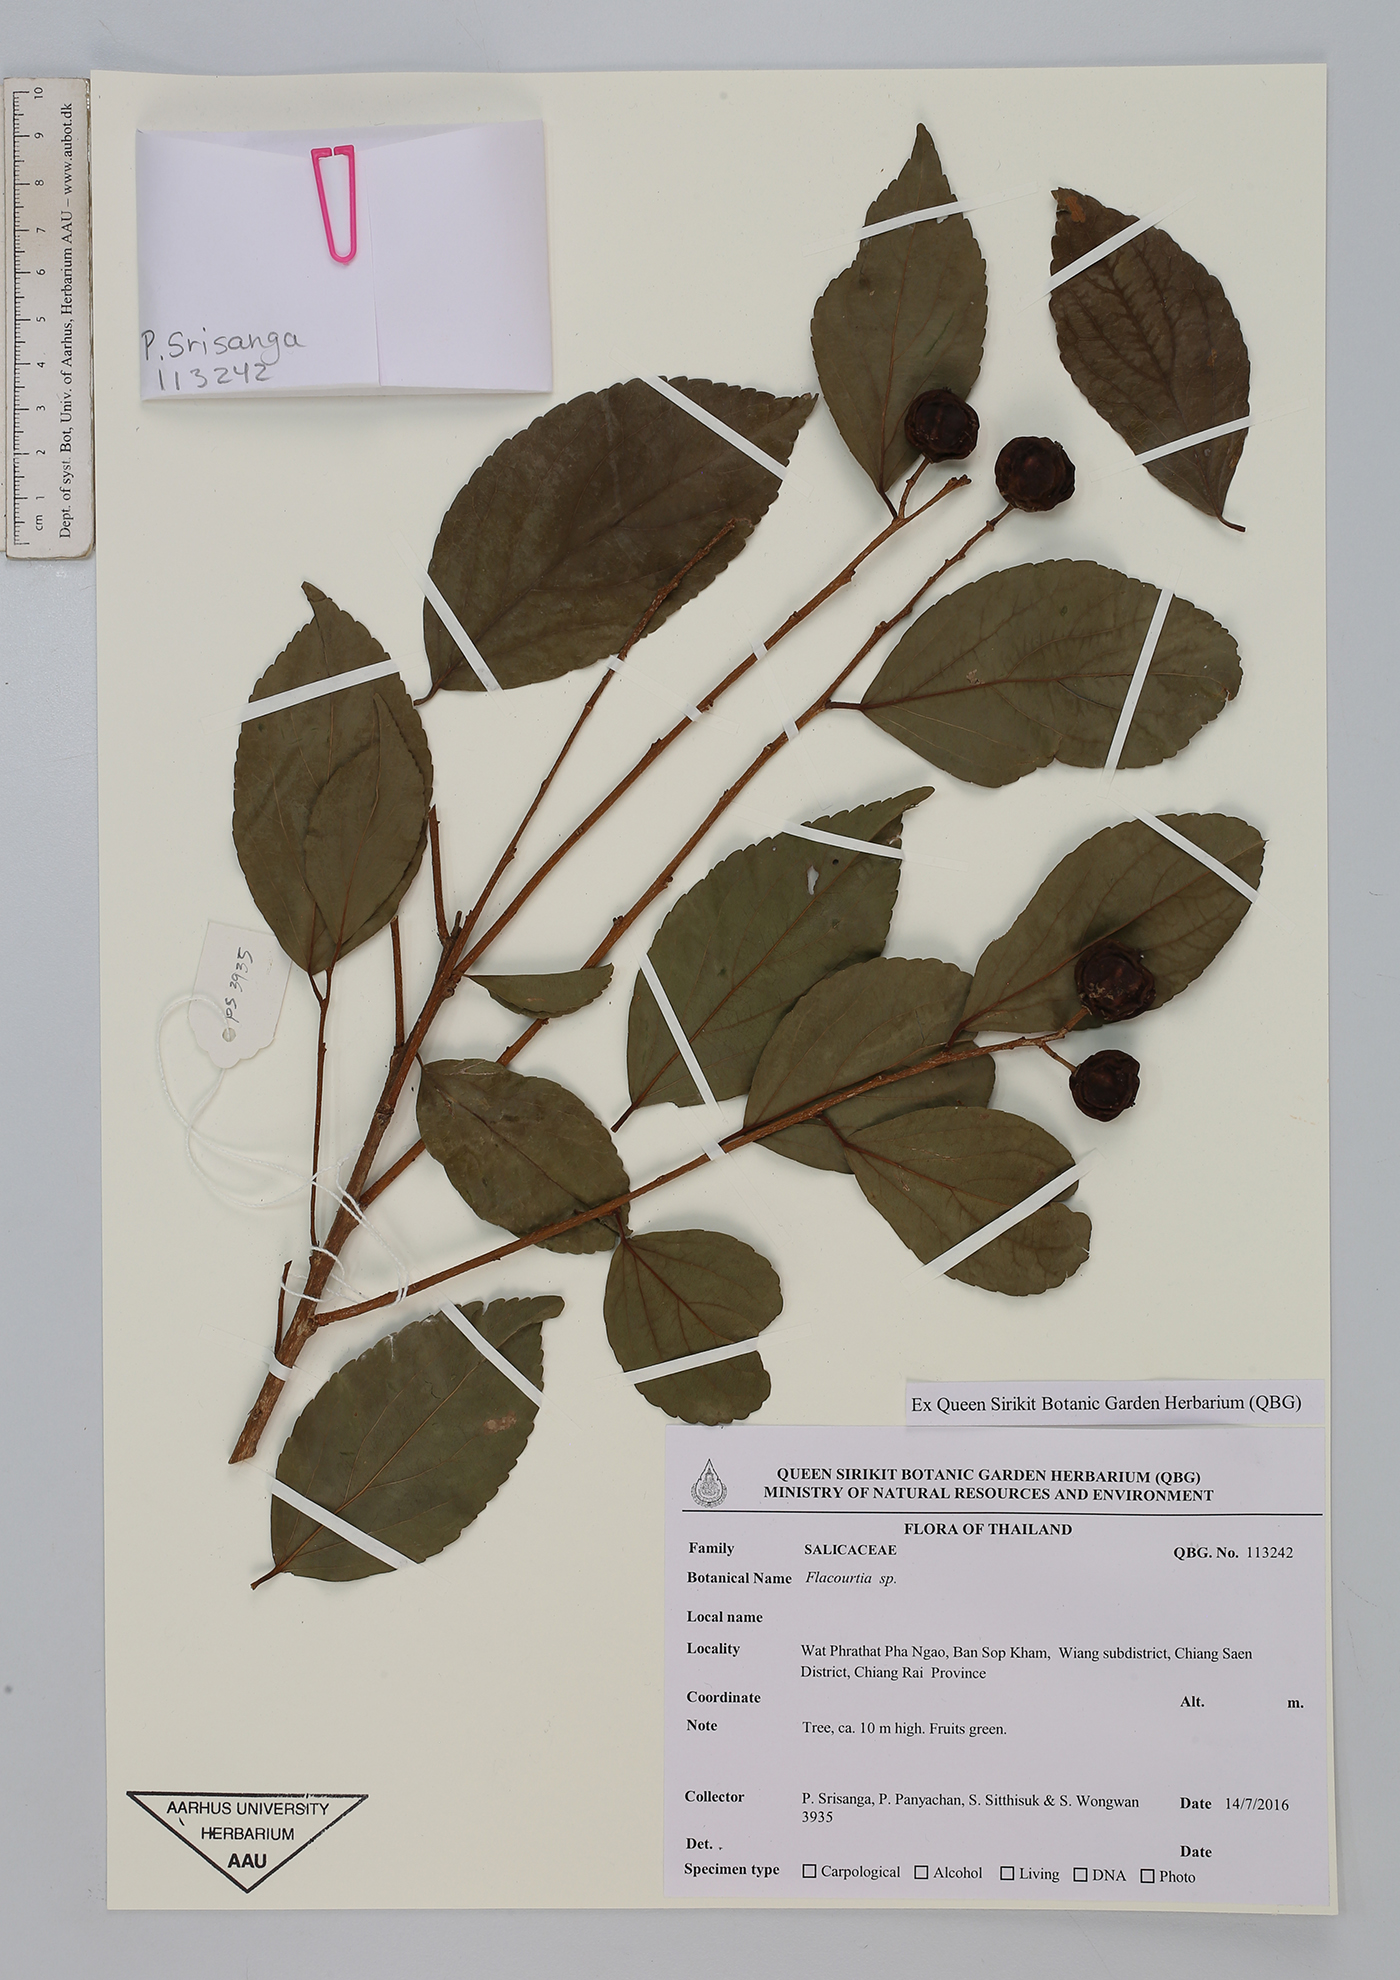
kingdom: Plantae
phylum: Tracheophyta
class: Magnoliopsida
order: Malpighiales
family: Salicaceae
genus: Flacourtia
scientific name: Flacourtia
